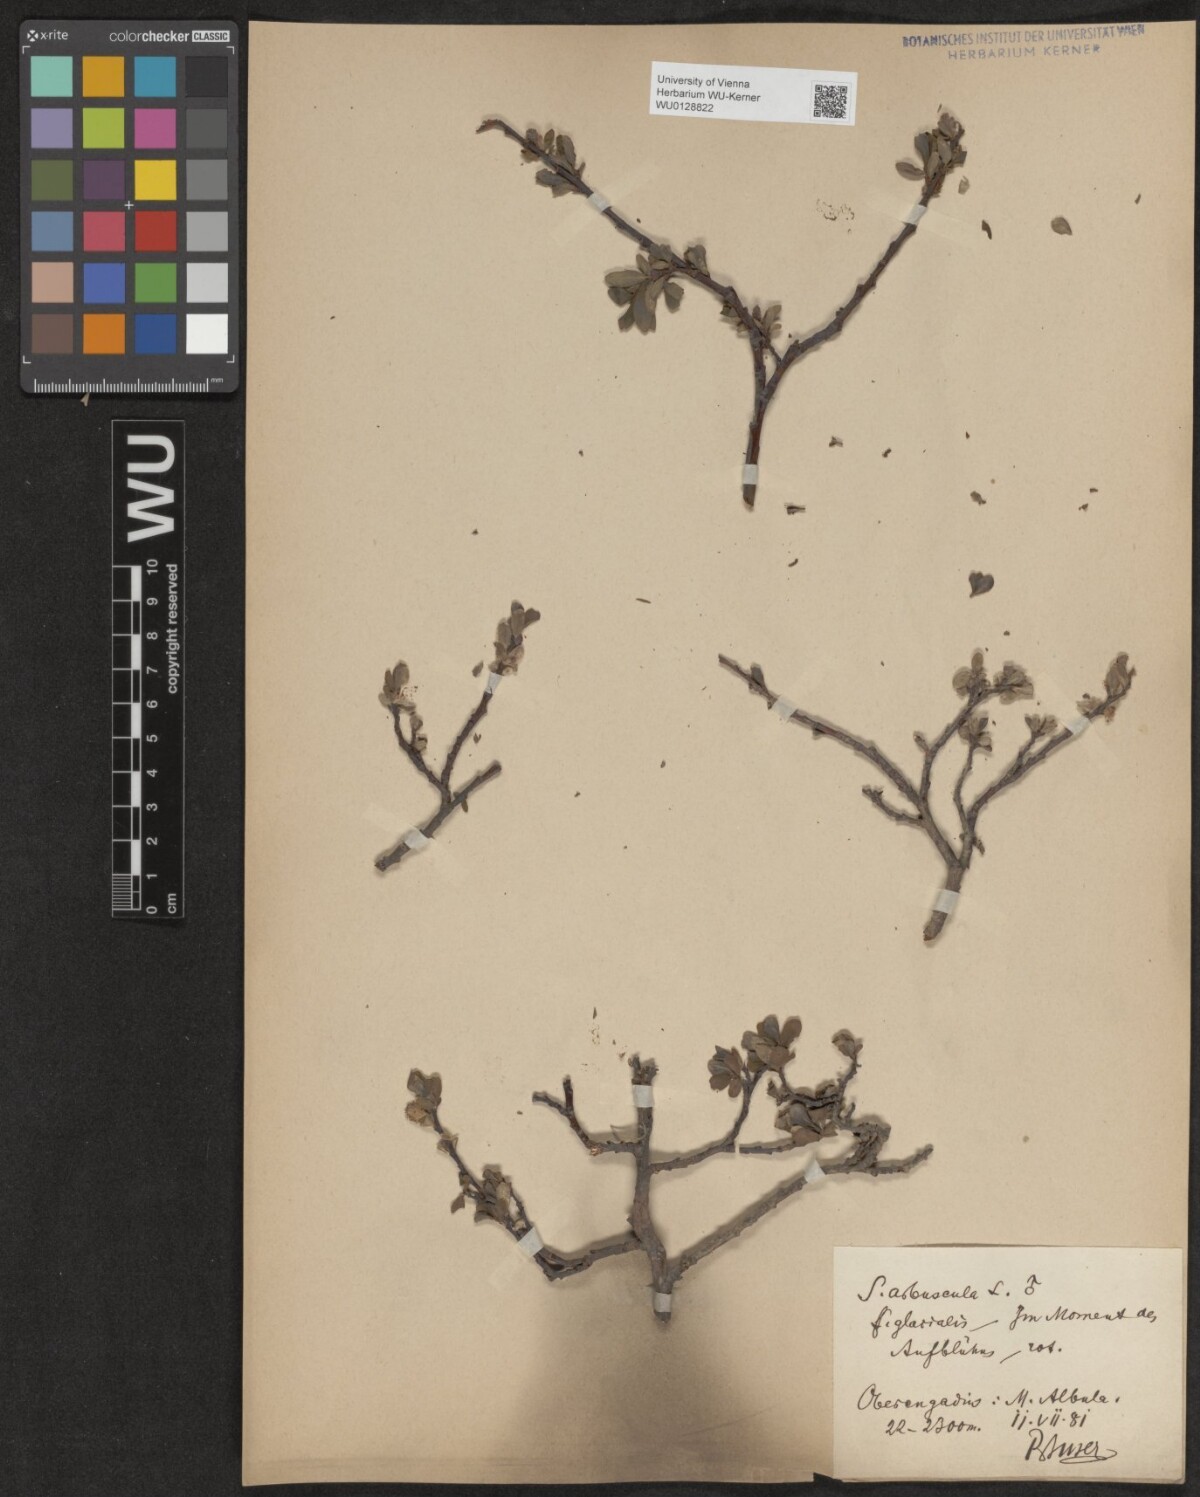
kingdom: Plantae
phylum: Tracheophyta
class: Magnoliopsida
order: Malpighiales
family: Salicaceae
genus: Salix
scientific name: Salix arbuscula
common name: Mountain willow
